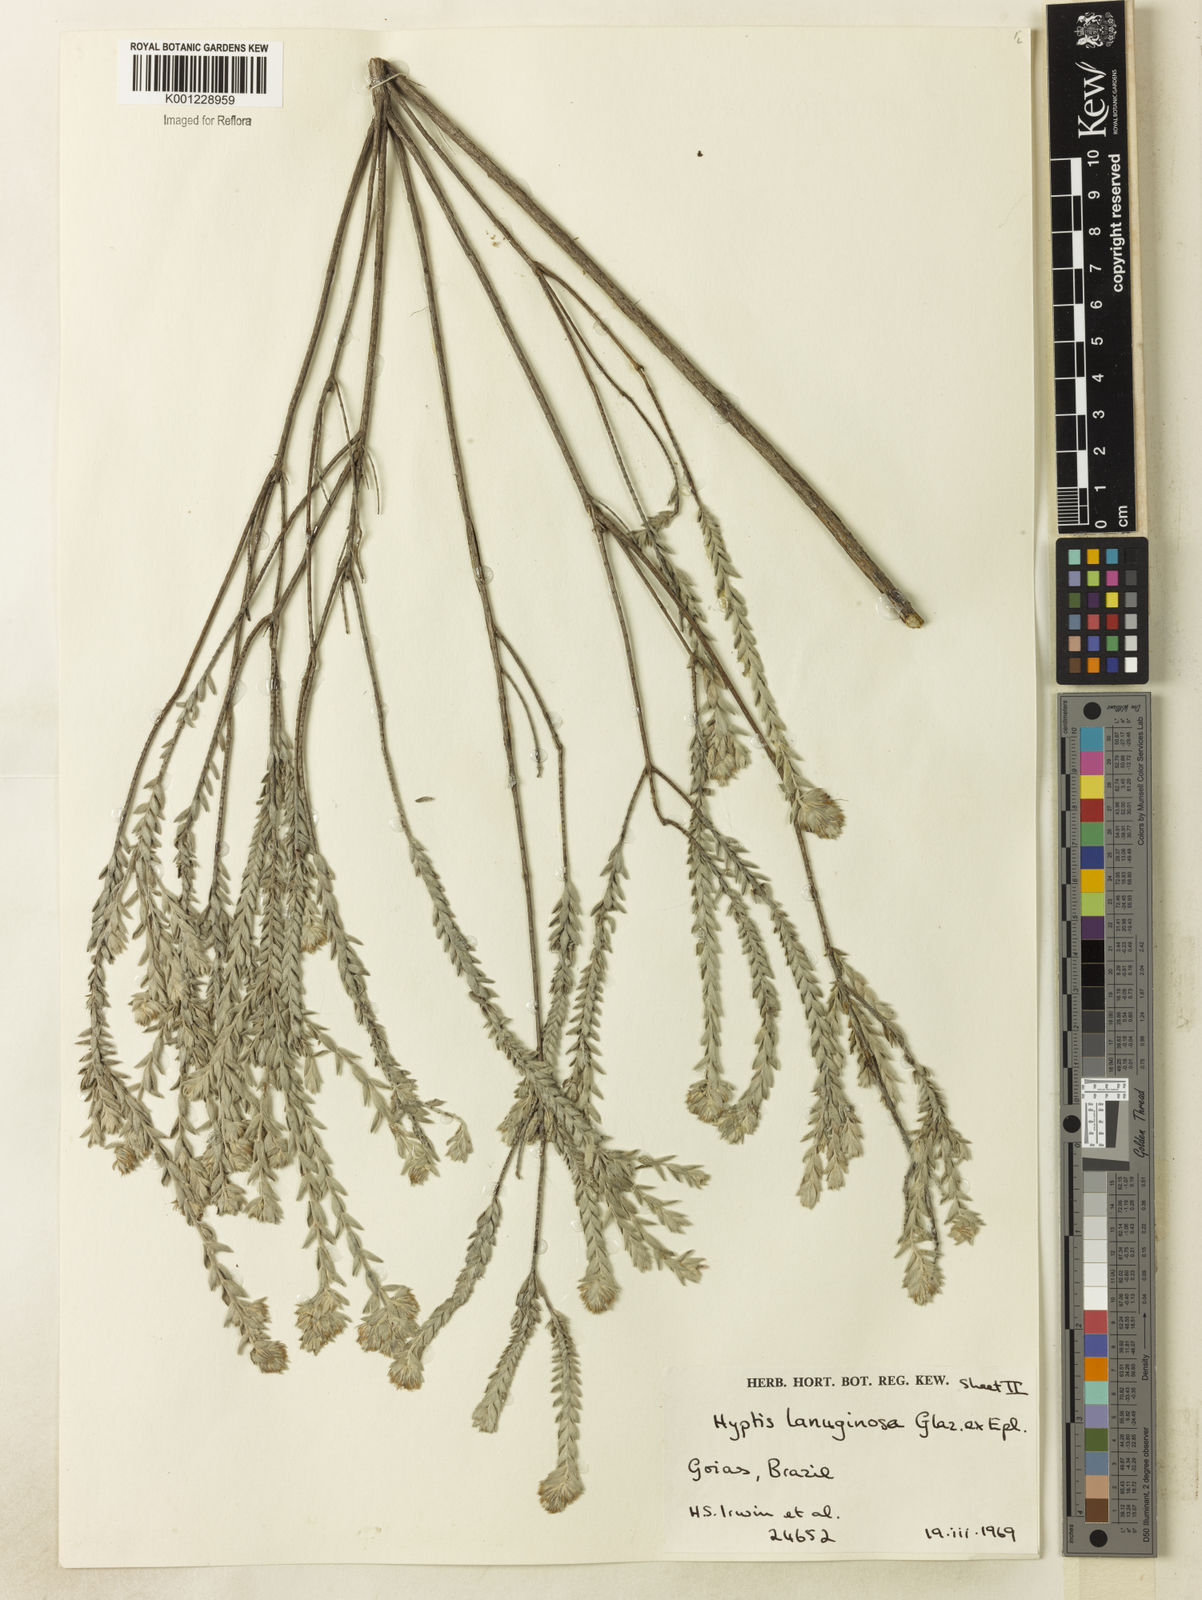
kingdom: Plantae
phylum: Tracheophyta
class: Magnoliopsida
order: Lamiales
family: Lamiaceae
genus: Hyptis
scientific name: Hyptis lanuginosa
